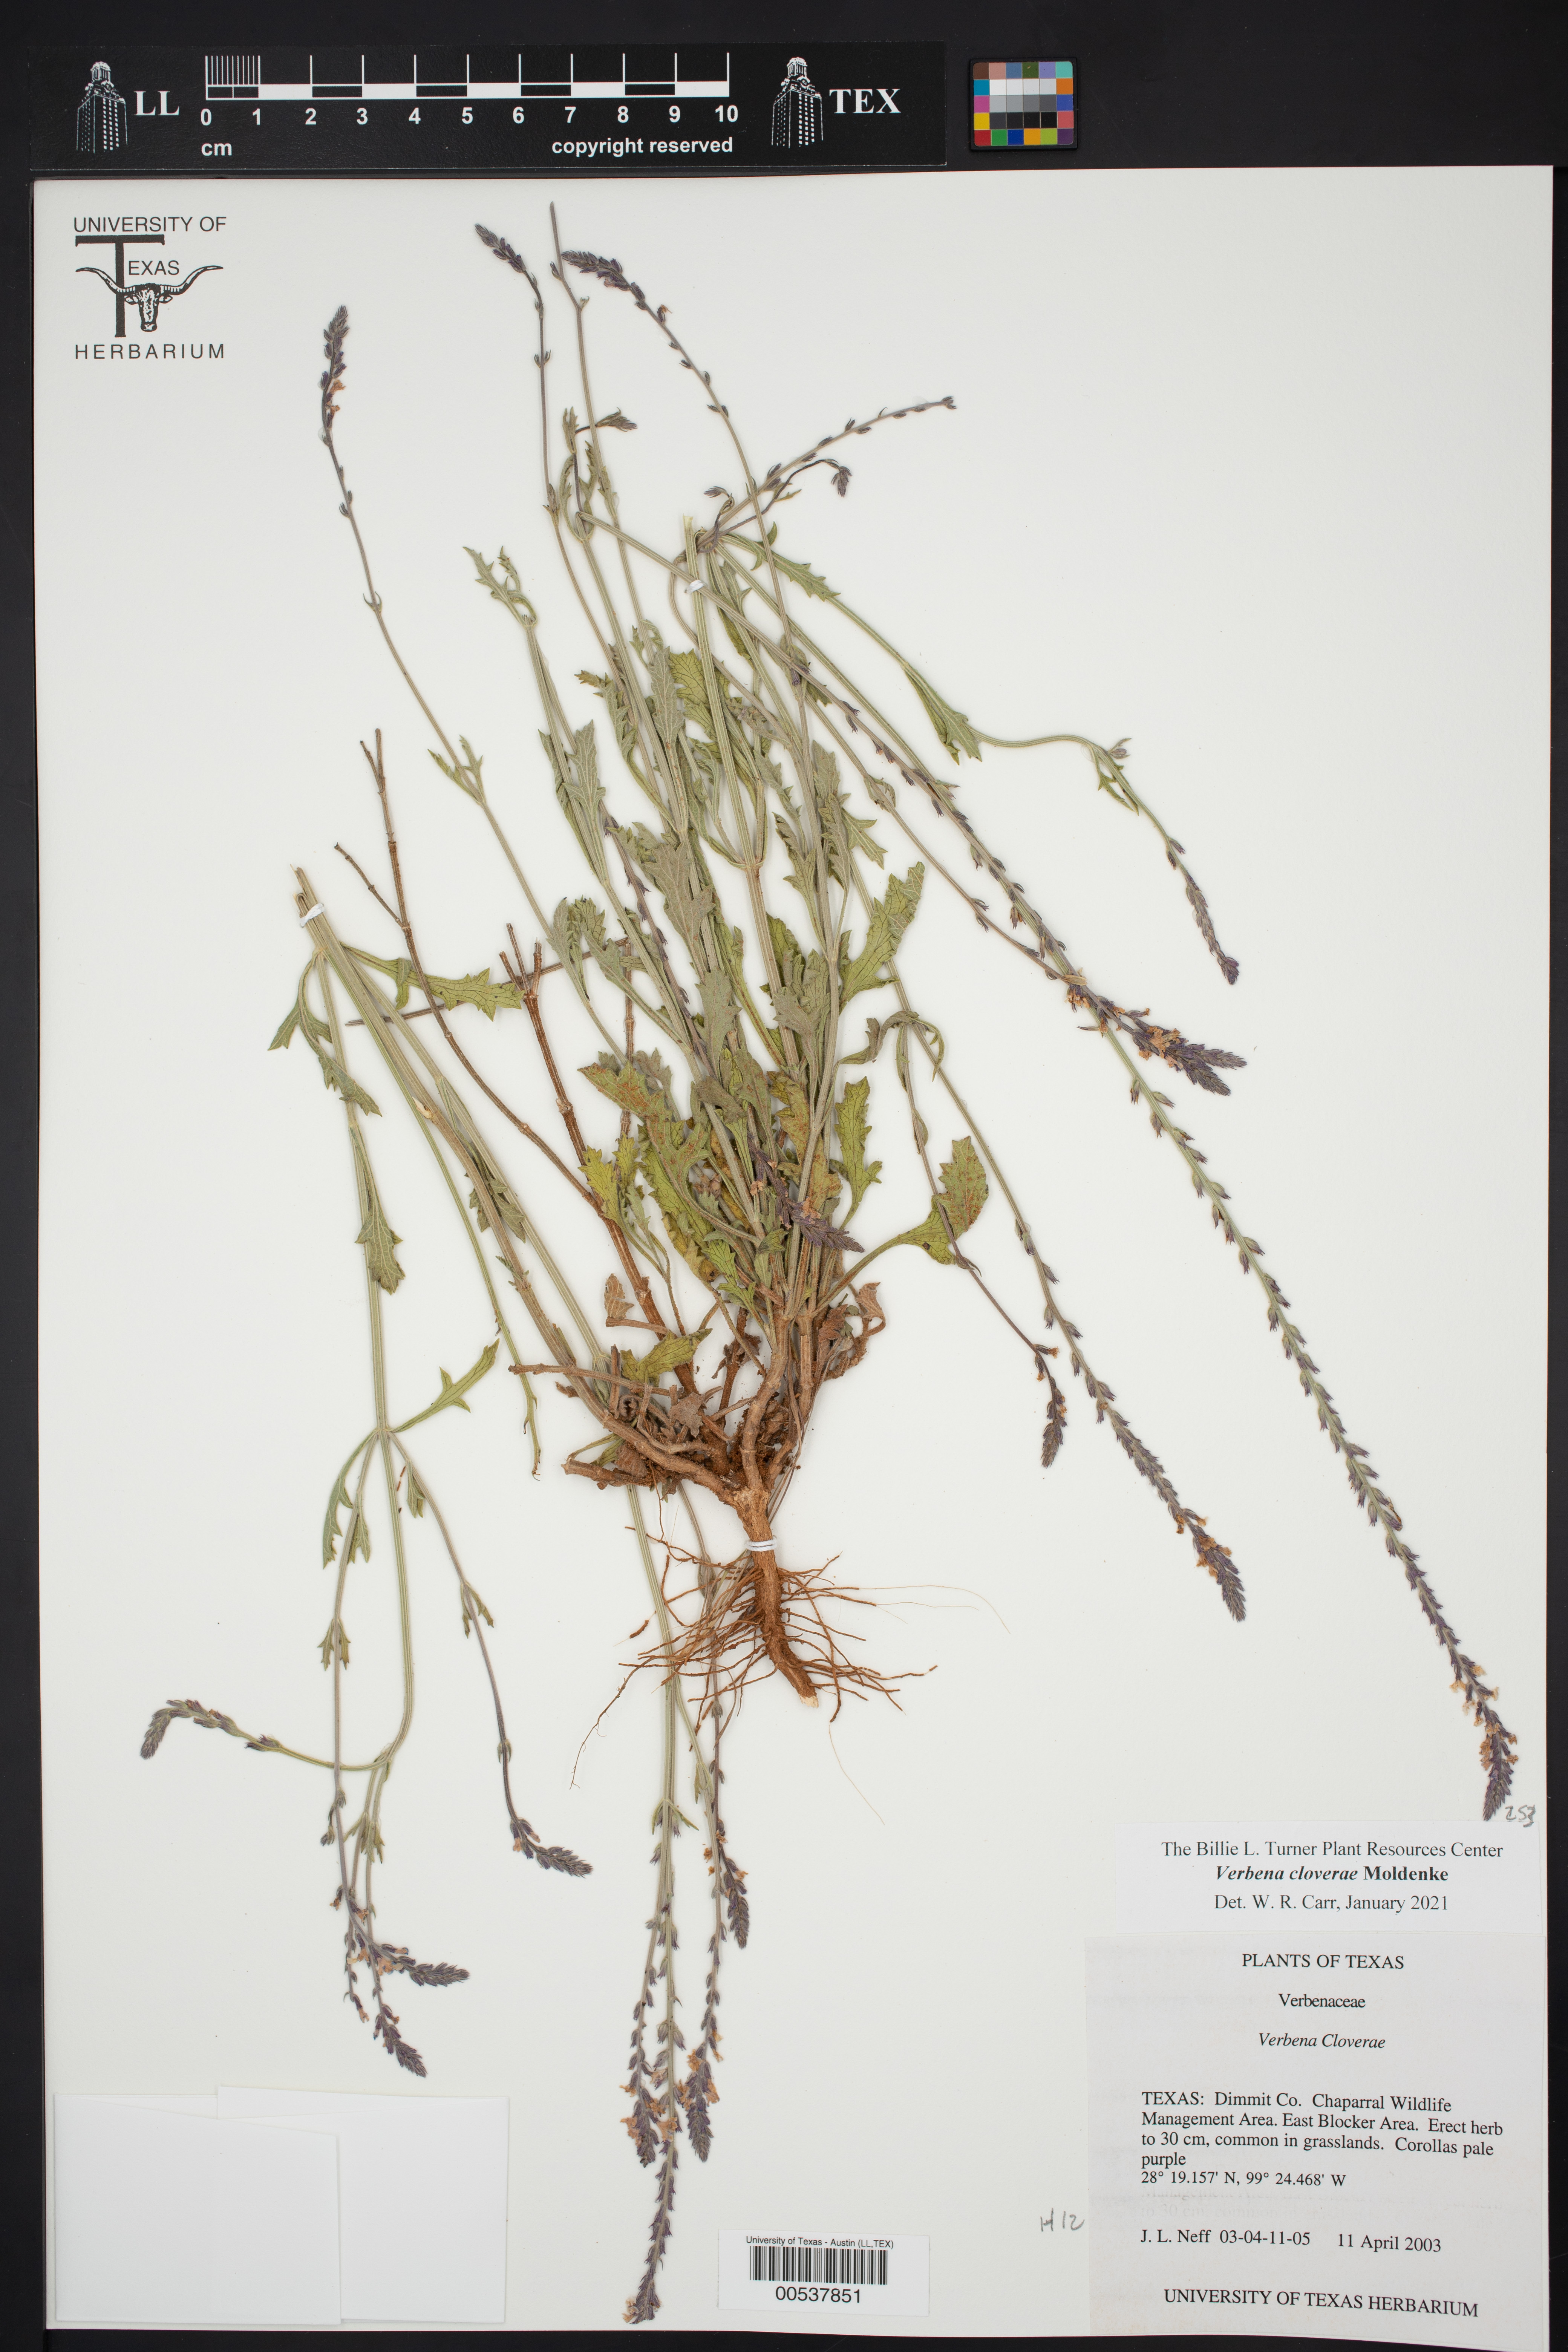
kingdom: Plantae
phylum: Tracheophyta
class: Magnoliopsida
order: Lamiales
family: Verbenaceae
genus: Verbena
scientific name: Verbena cloverae
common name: Clover's vervain
